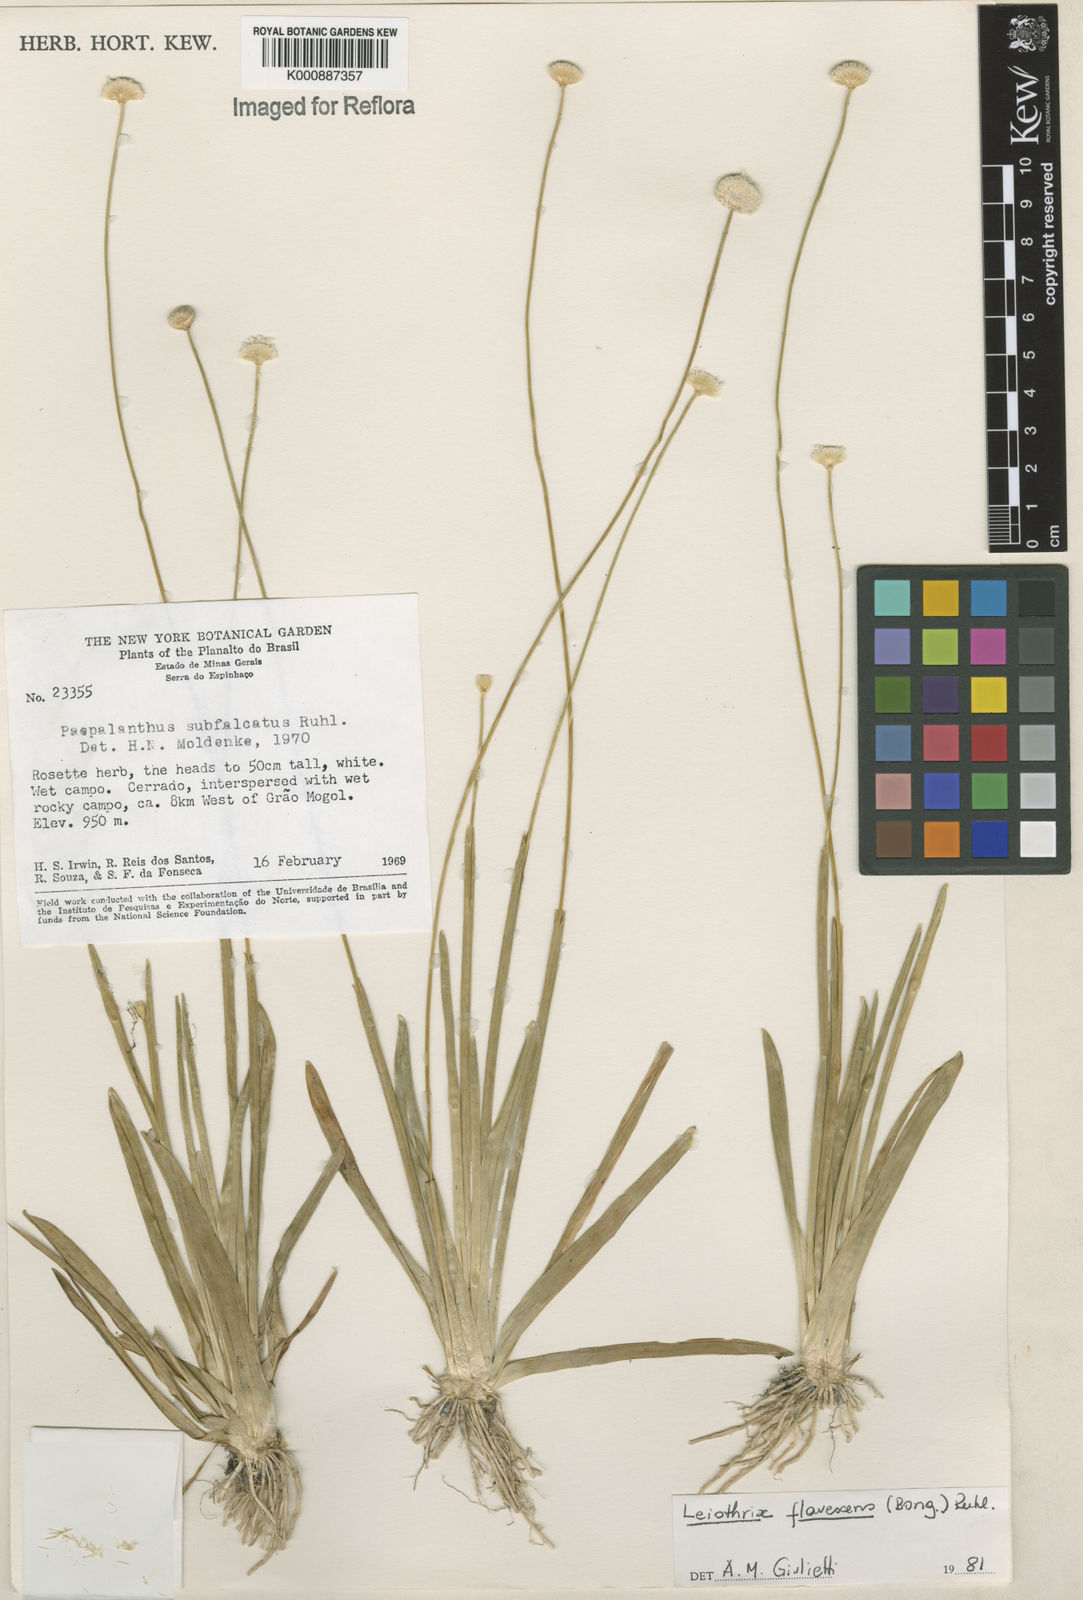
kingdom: Plantae
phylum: Tracheophyta
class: Liliopsida
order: Poales
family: Eriocaulaceae
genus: Leiothrix
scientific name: Leiothrix flavescens
